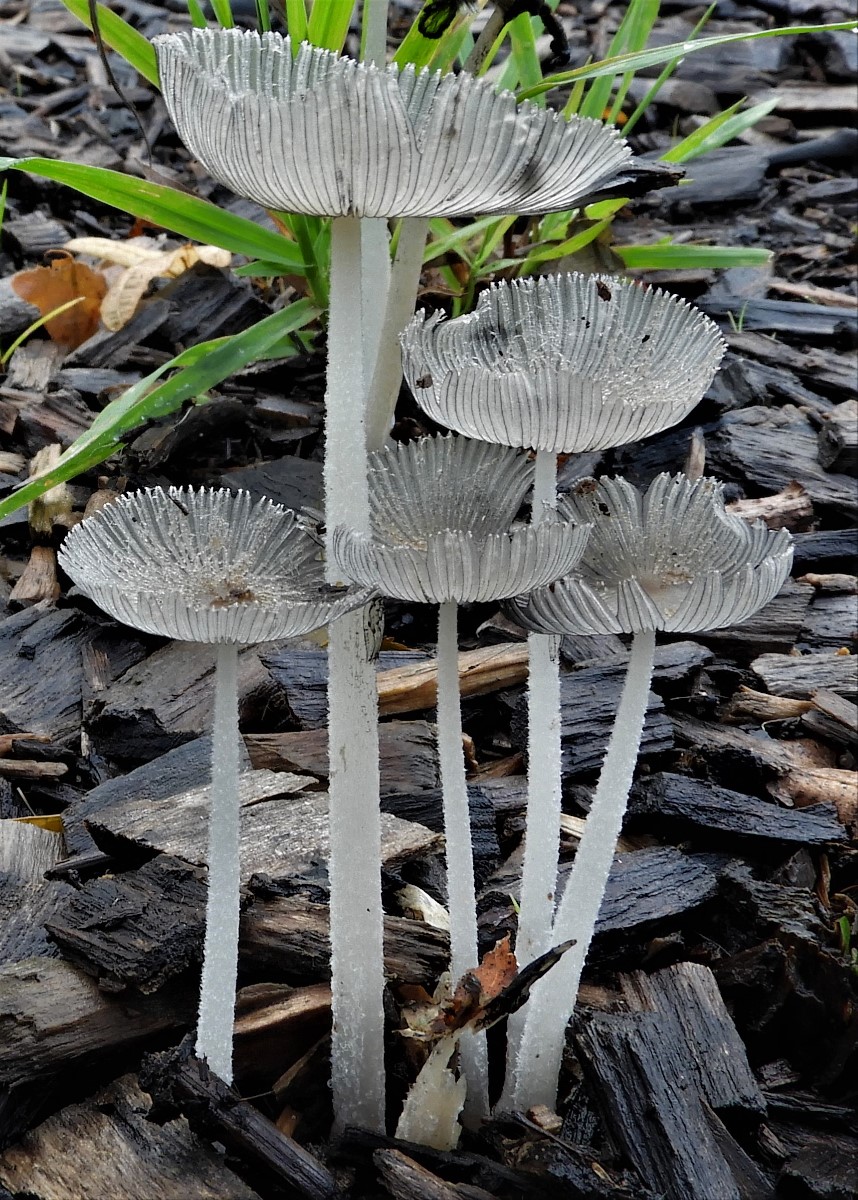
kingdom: Fungi
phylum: Basidiomycota
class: Agaricomycetes
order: Agaricales
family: Psathyrellaceae
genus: Coprinopsis
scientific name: Coprinopsis lagopus
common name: dunstokket blækhat
